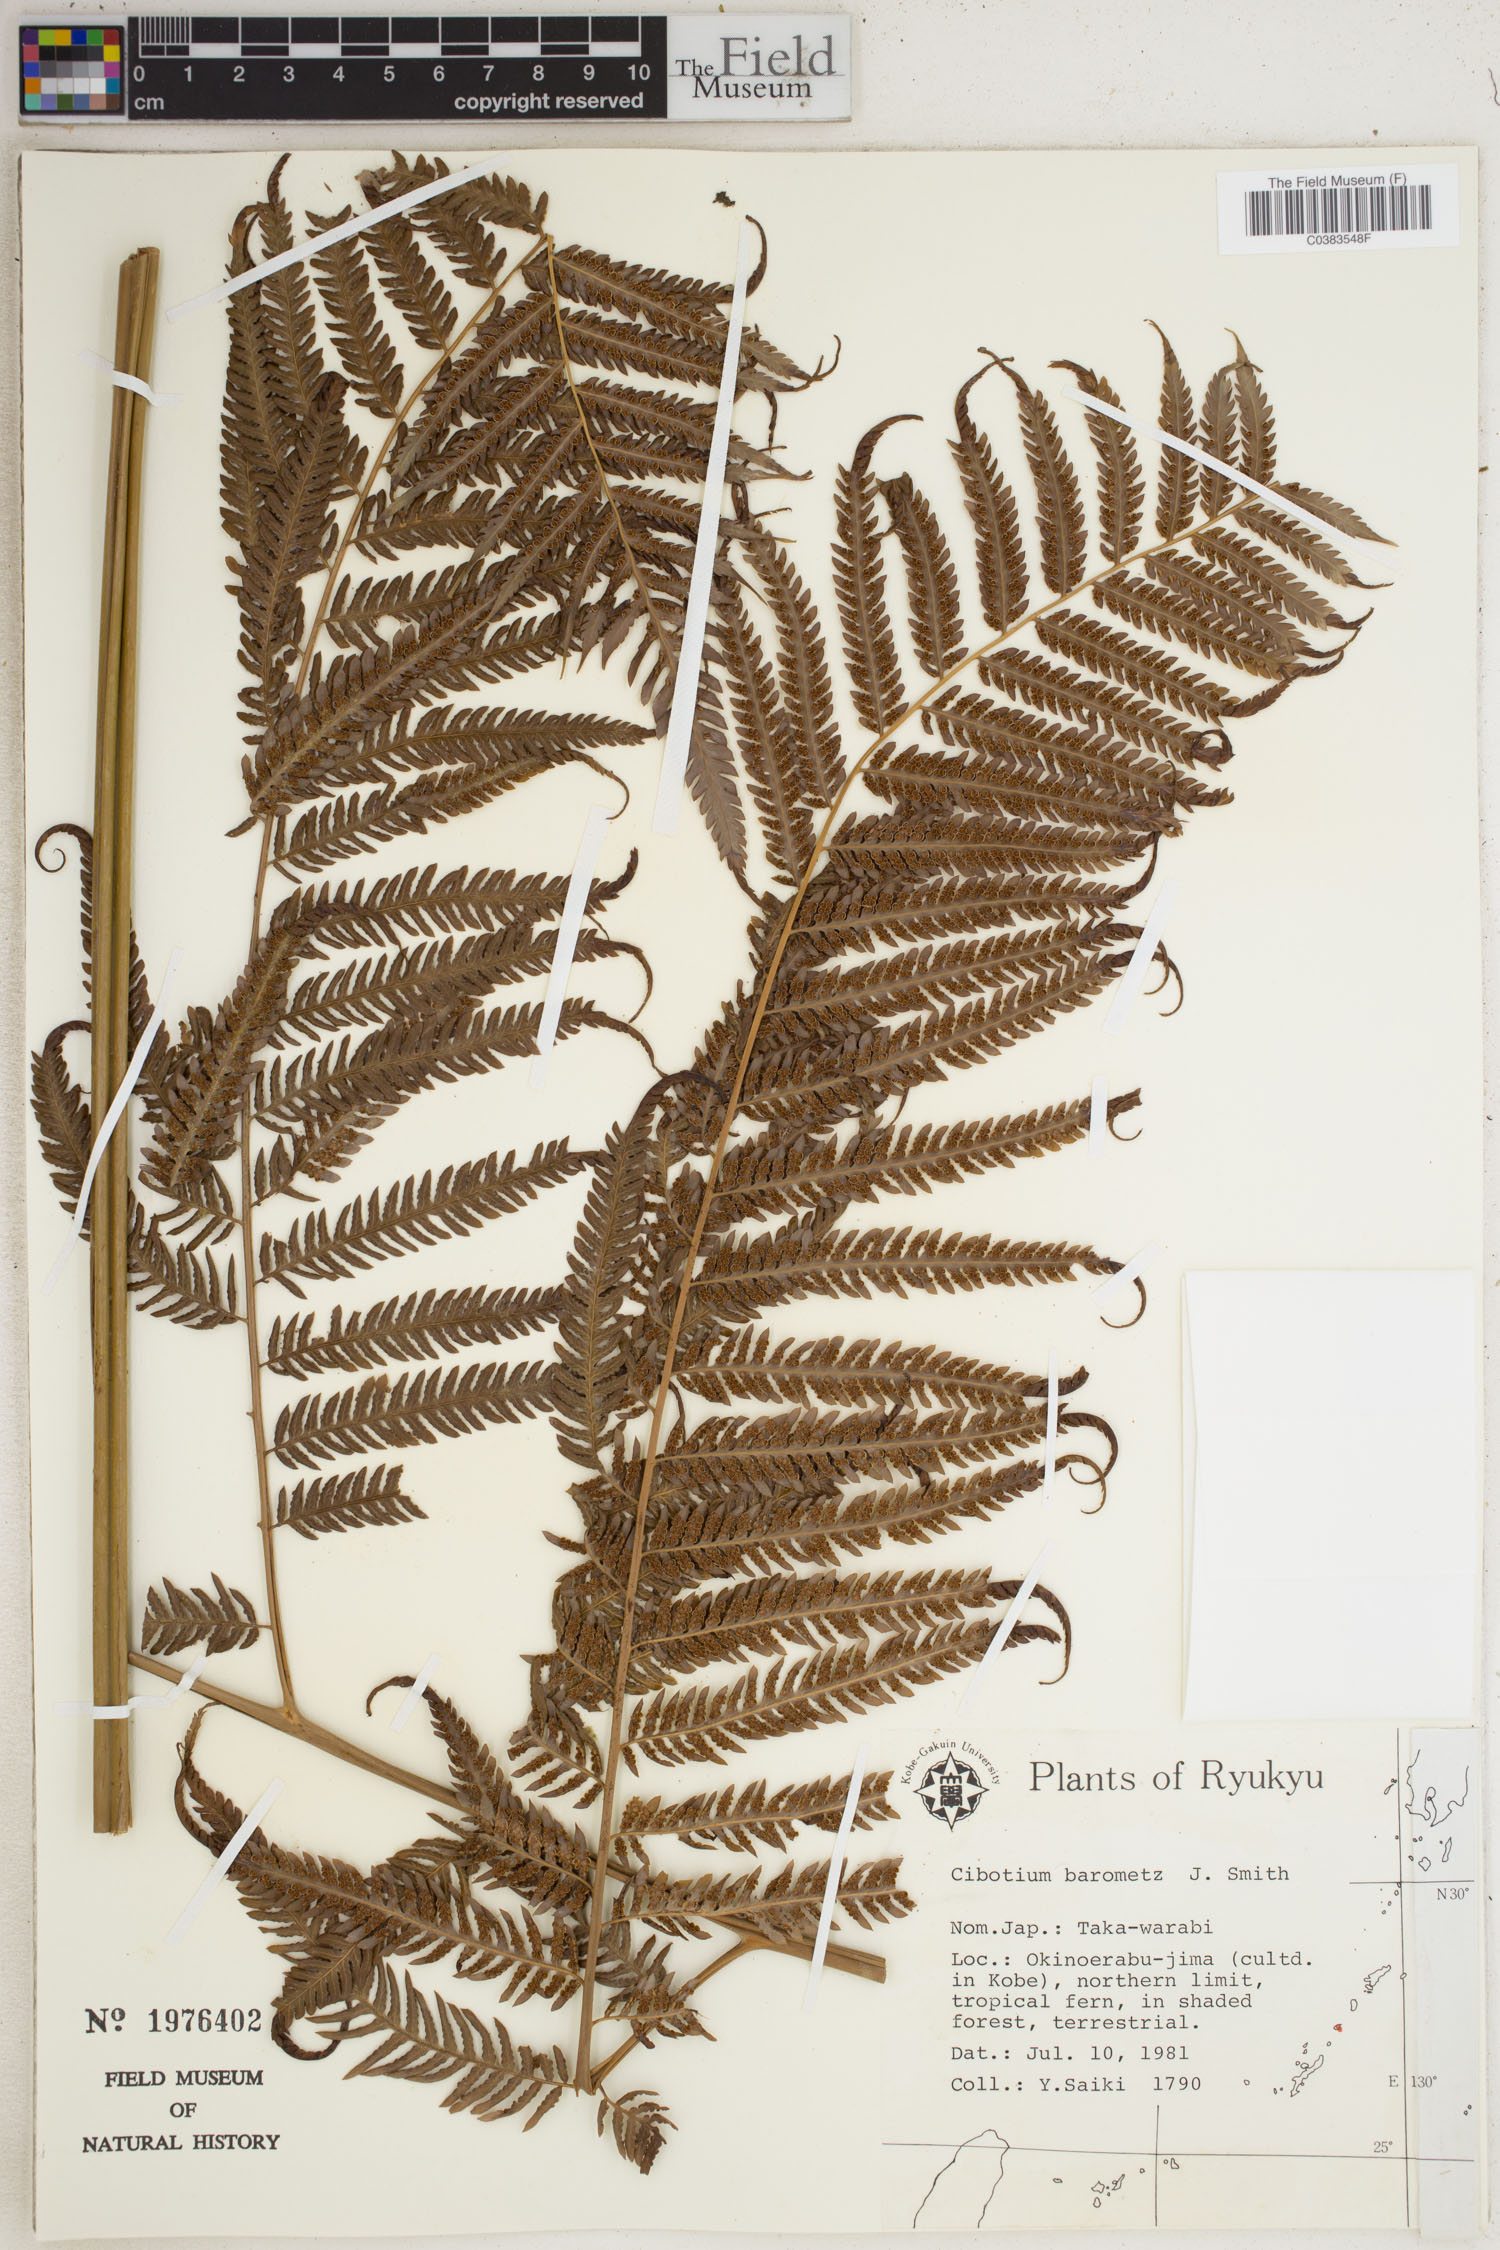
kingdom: Plantae
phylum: Tracheophyta
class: Polypodiopsida
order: Cyatheales
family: Cibotiaceae
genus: Cibotium
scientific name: Cibotium regale
